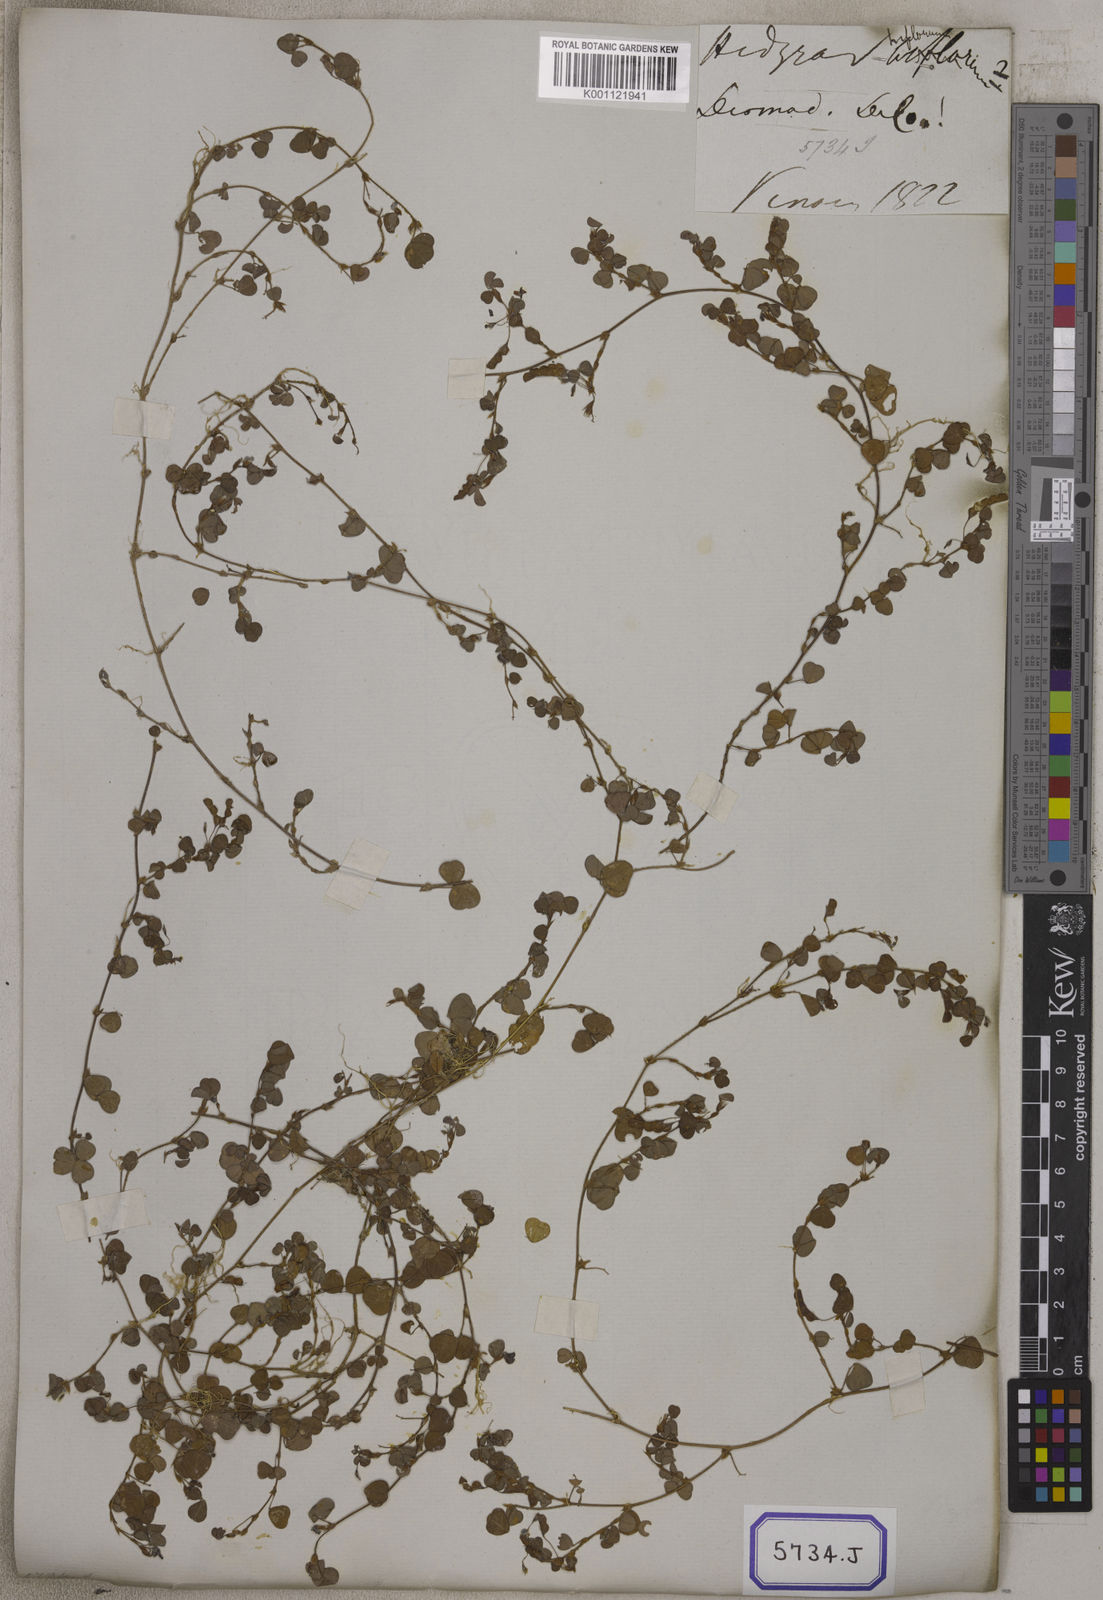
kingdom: Plantae
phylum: Tracheophyta
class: Magnoliopsida
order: Fabales
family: Fabaceae
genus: Desmodium
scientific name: Desmodium
